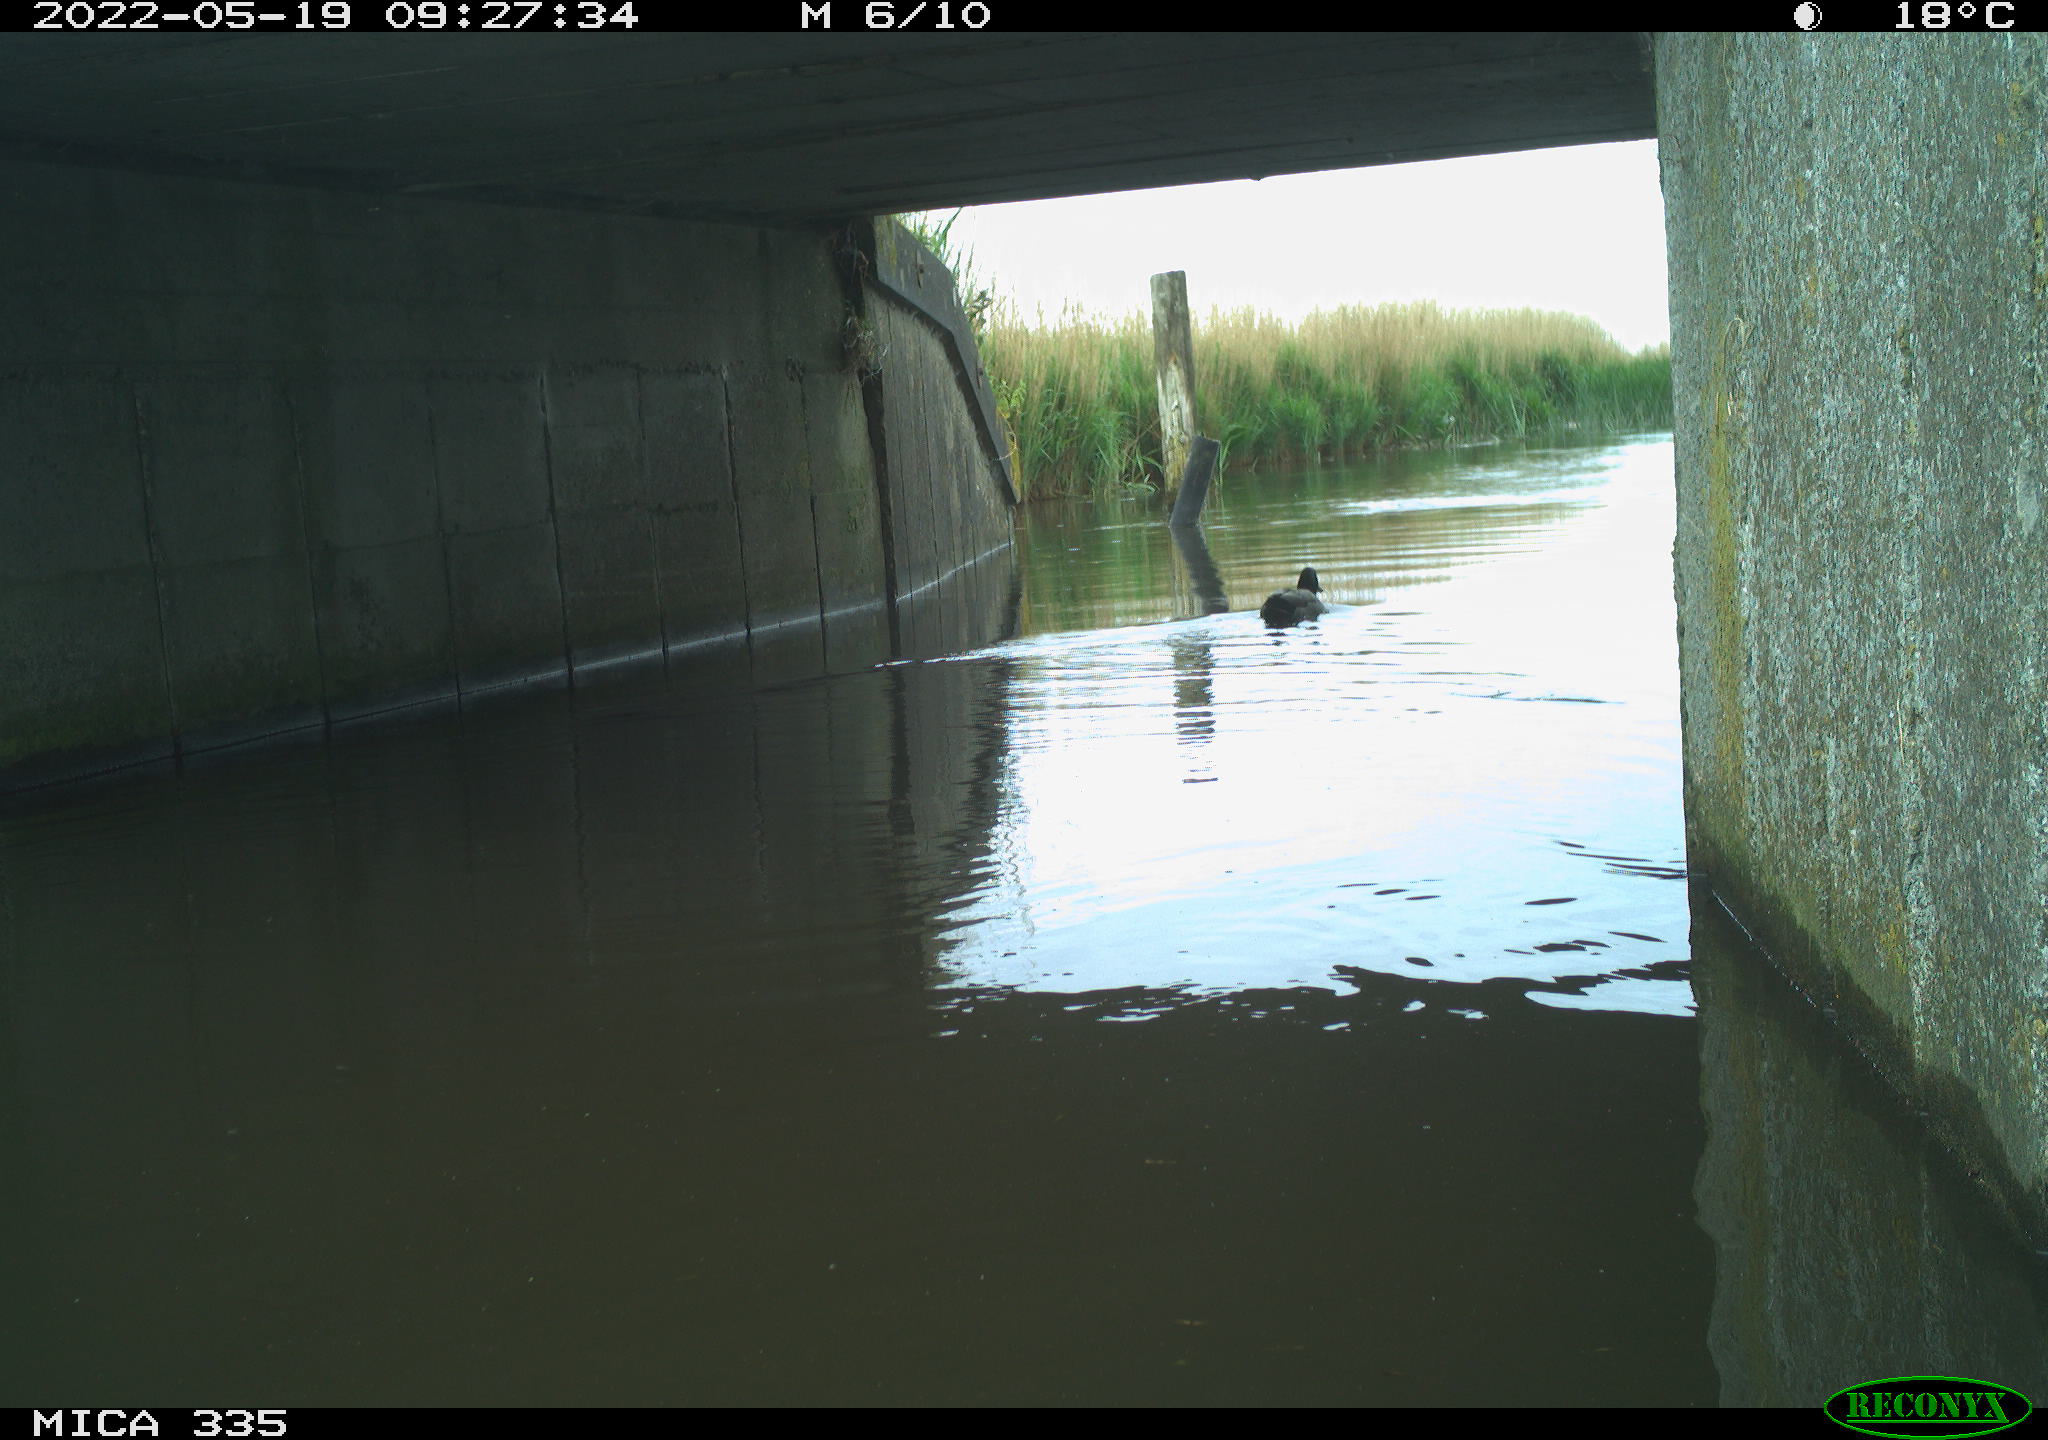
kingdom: Animalia
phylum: Chordata
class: Aves
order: Anseriformes
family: Anatidae
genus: Anas
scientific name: Anas platyrhynchos
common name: Mallard
